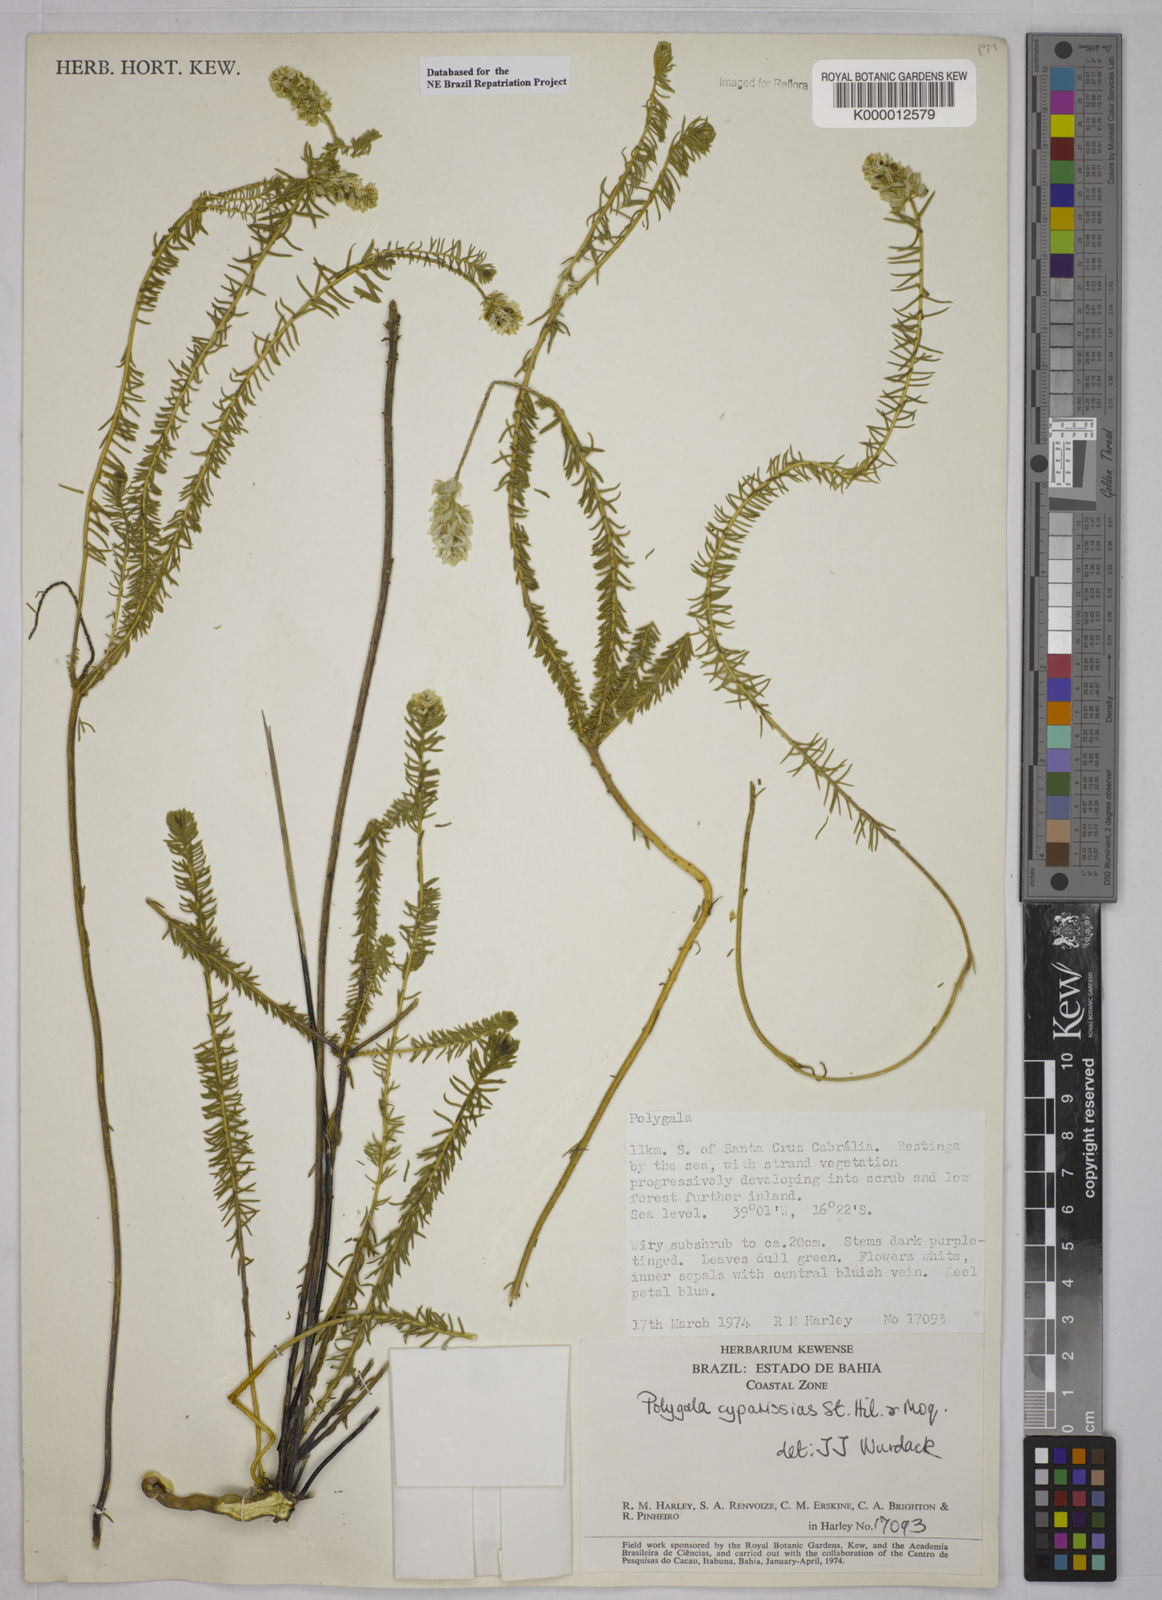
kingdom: Plantae
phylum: Tracheophyta
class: Magnoliopsida
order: Fabales
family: Polygalaceae
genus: Polygala
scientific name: Polygala cyparissias
